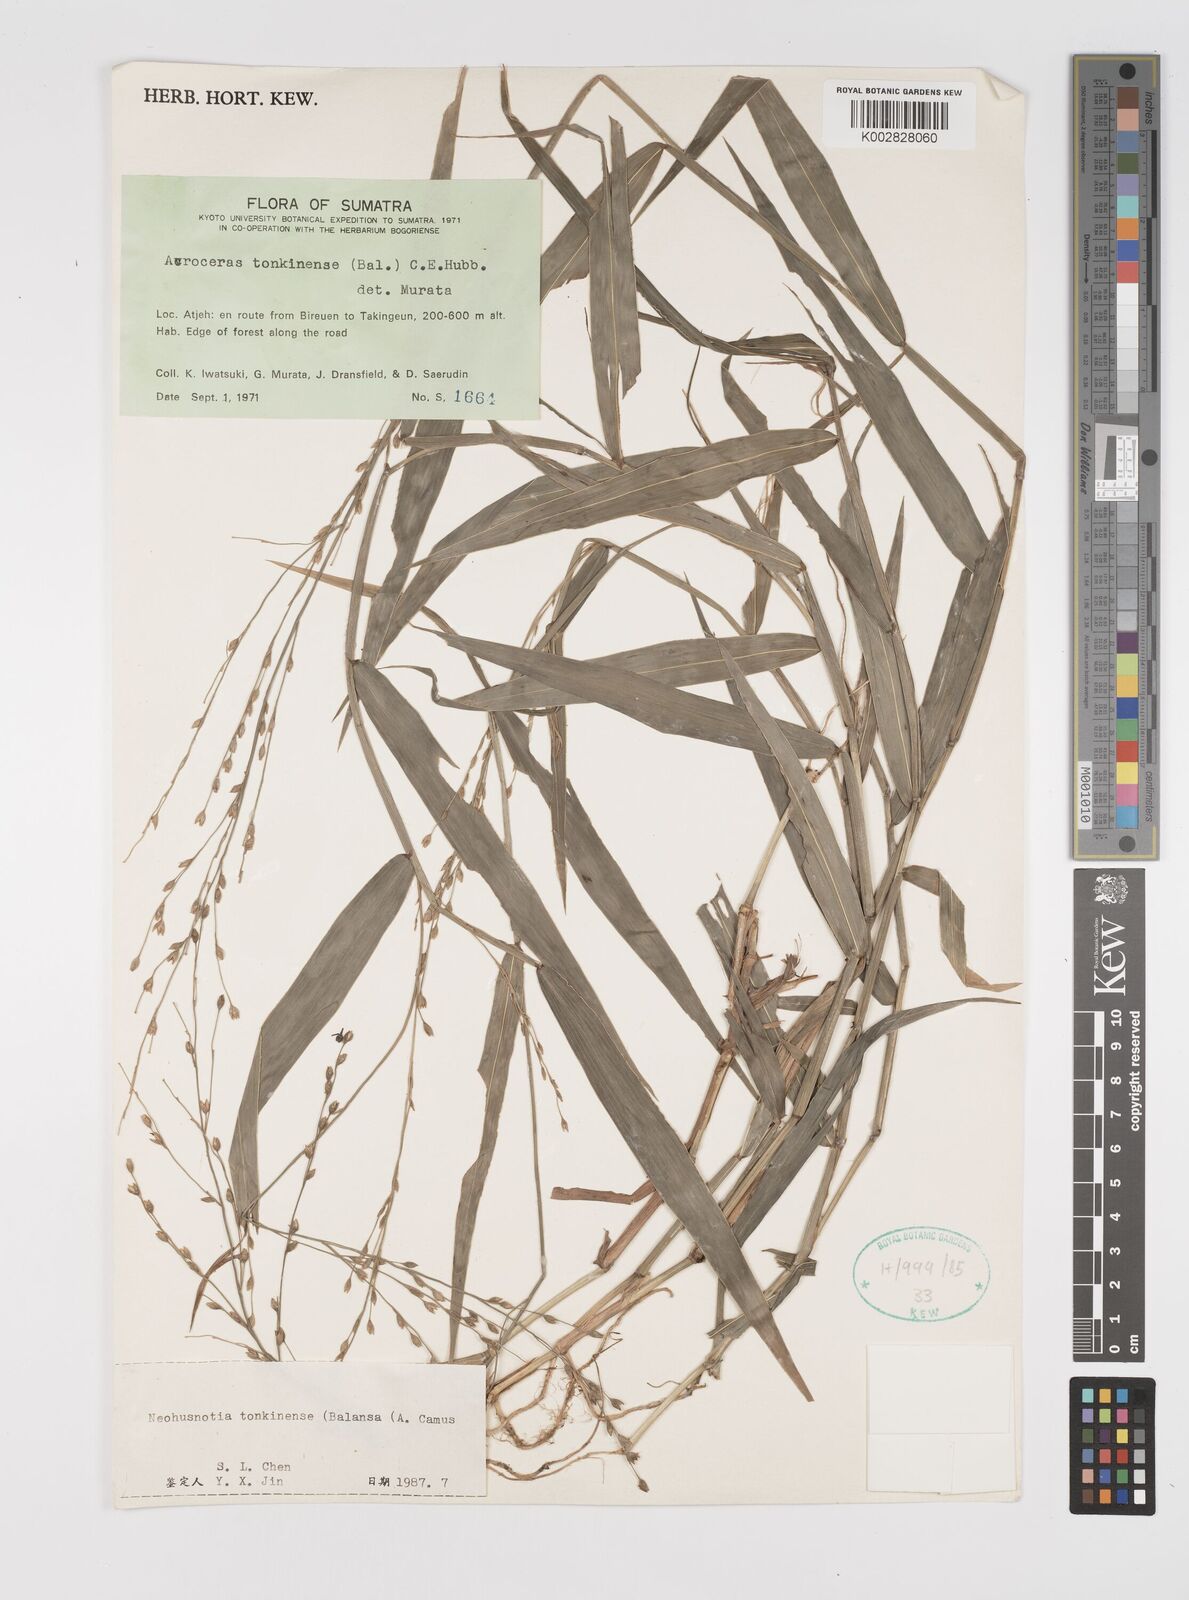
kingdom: Plantae
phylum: Tracheophyta
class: Liliopsida
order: Poales
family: Poaceae
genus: Acroceras
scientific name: Acroceras tonkinense
